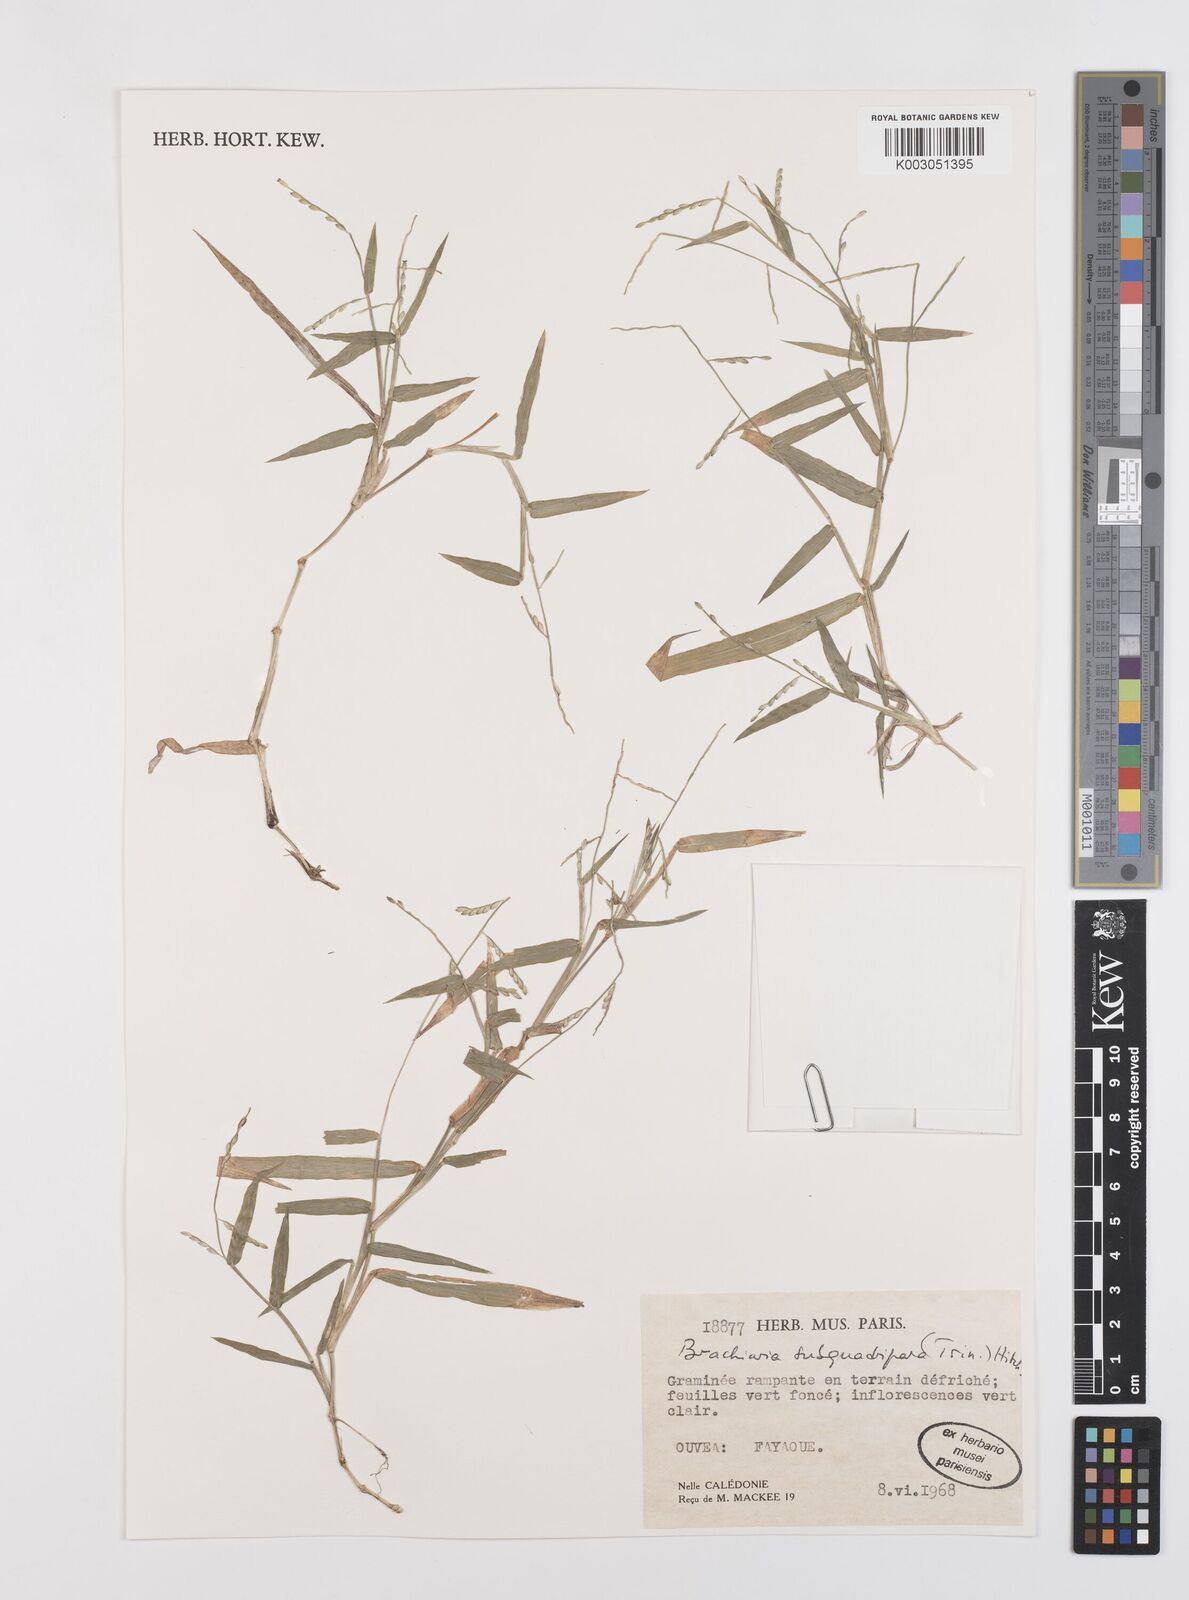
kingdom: Plantae
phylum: Tracheophyta
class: Liliopsida
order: Poales
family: Poaceae
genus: Urochloa
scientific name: Urochloa subquadripara
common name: Armgrass millet
